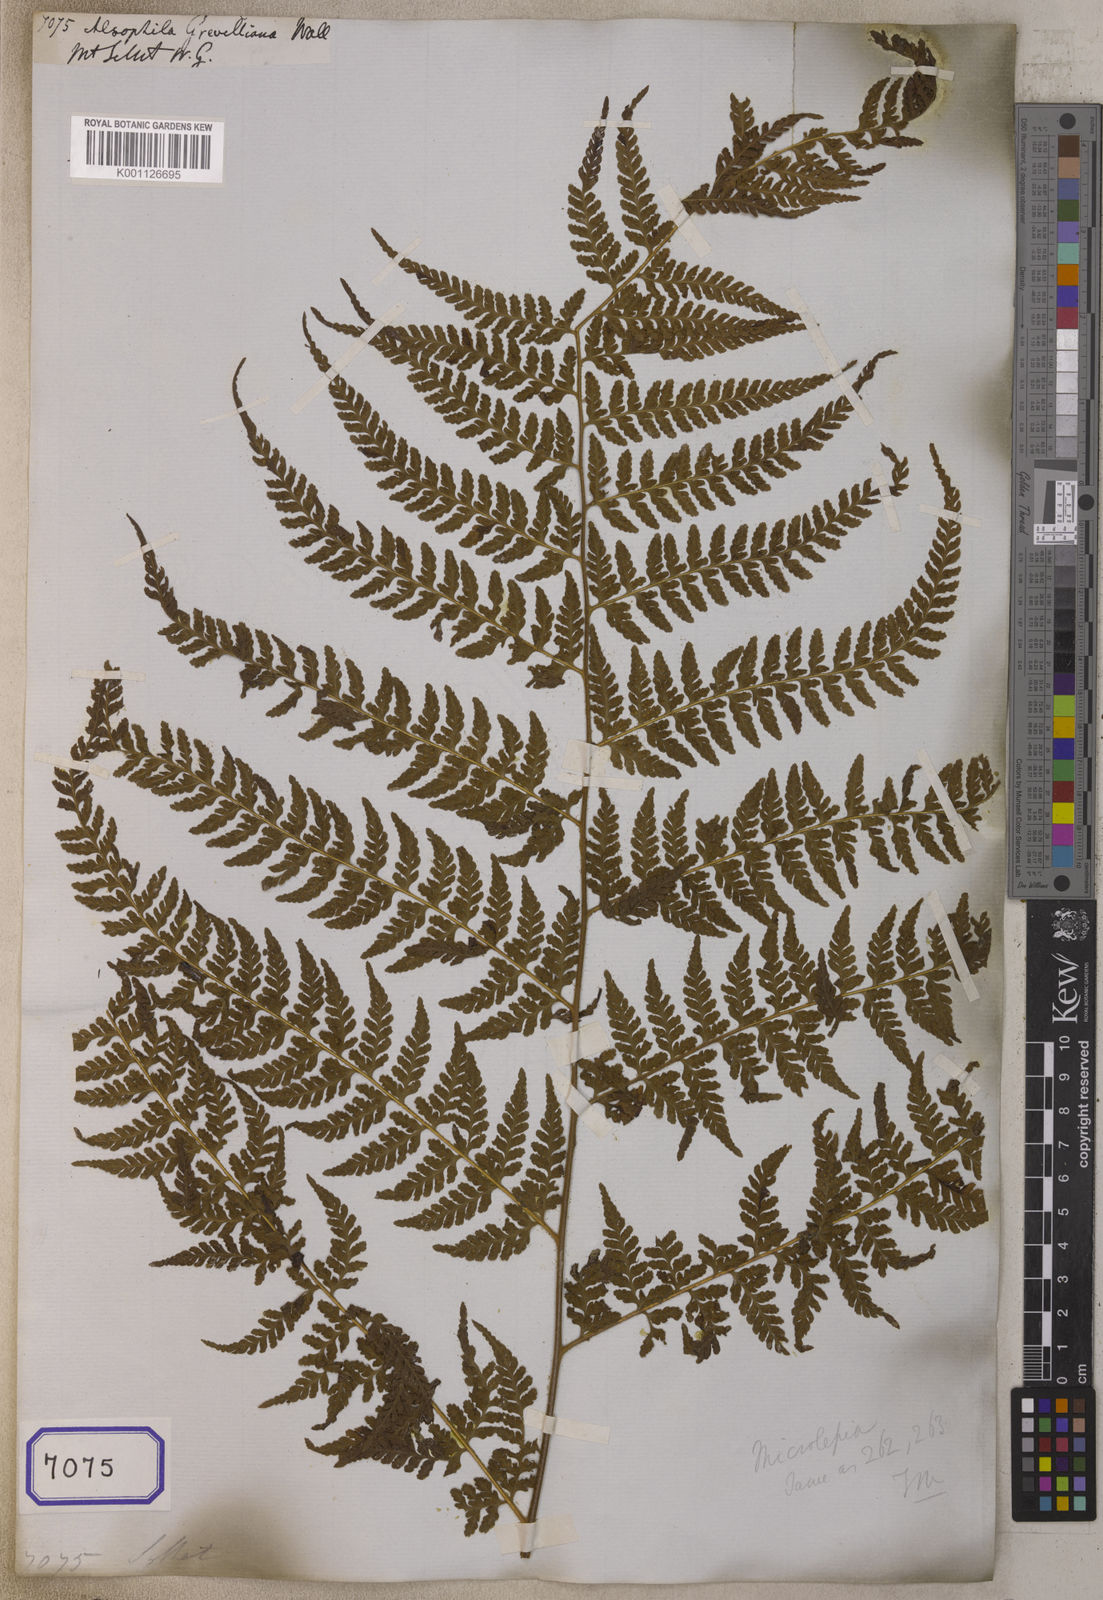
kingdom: Plantae
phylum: Tracheophyta
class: Polypodiopsida
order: Polypodiales
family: Dennstaedtiaceae
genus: Microlepia
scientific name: Microlepia speluncae
